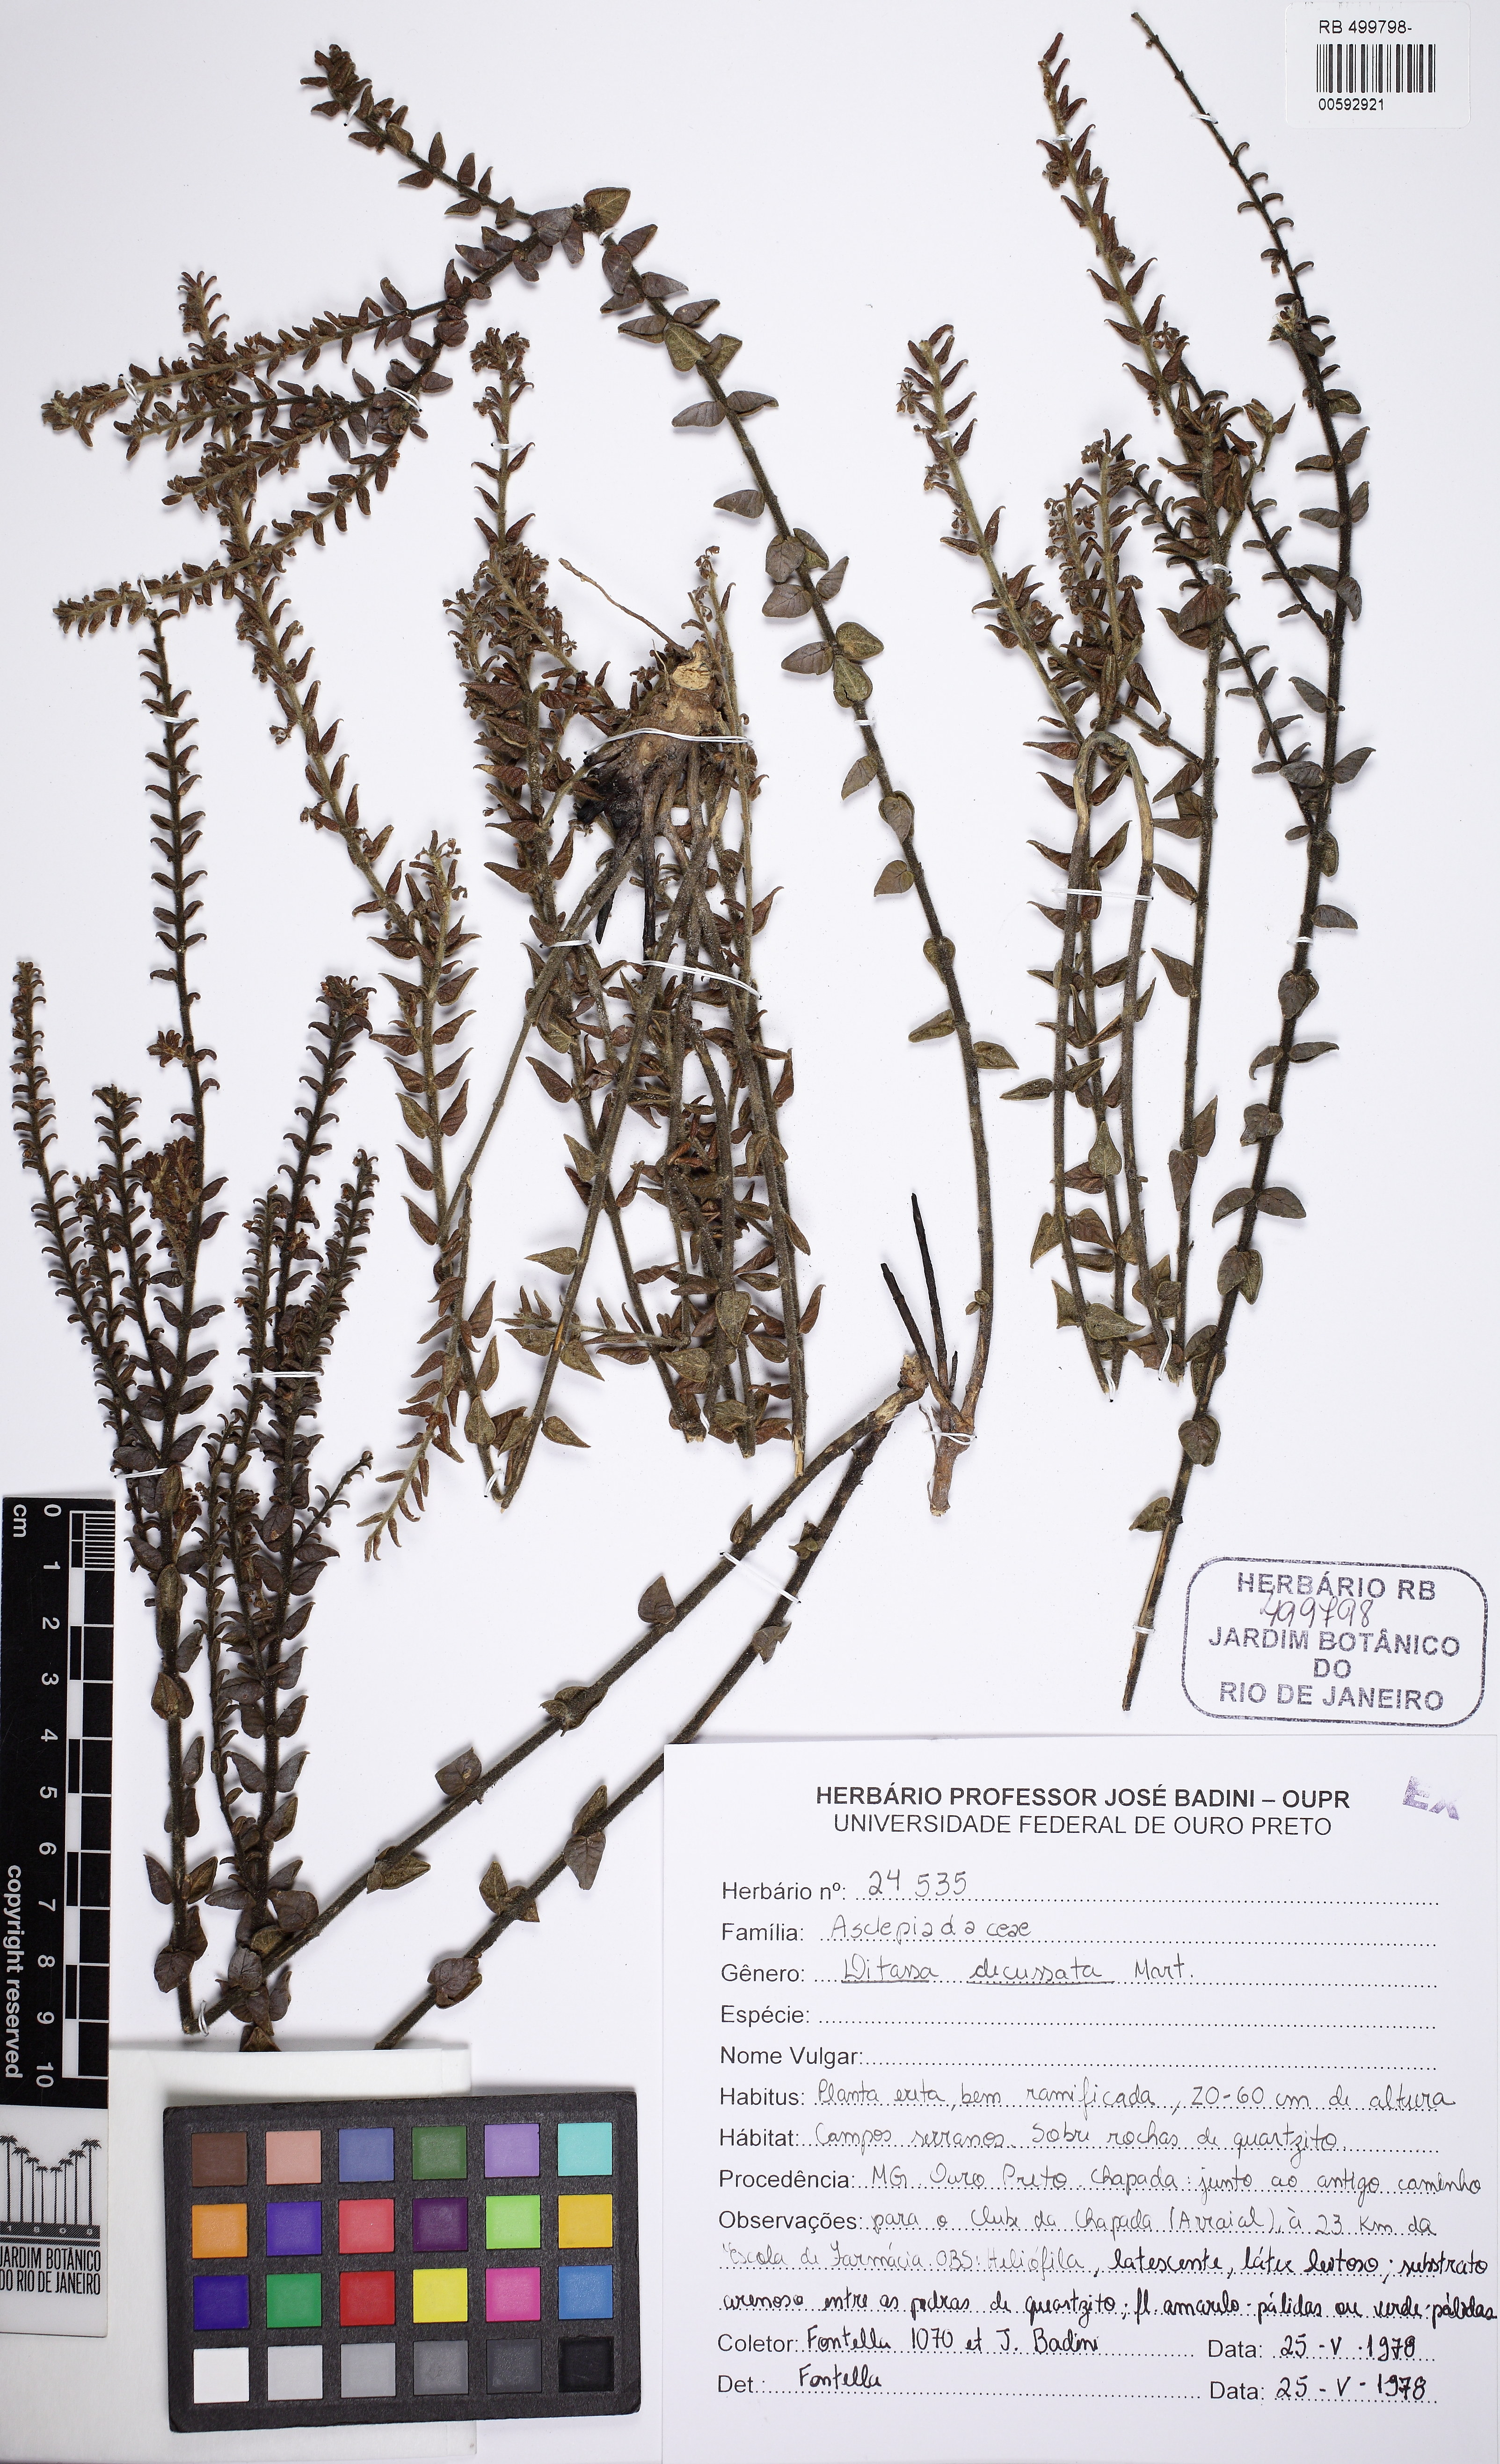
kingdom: Plantae
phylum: Tracheophyta
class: Magnoliopsida
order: Gentianales
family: Apocynaceae
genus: Minaria
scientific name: Minaria decussata
